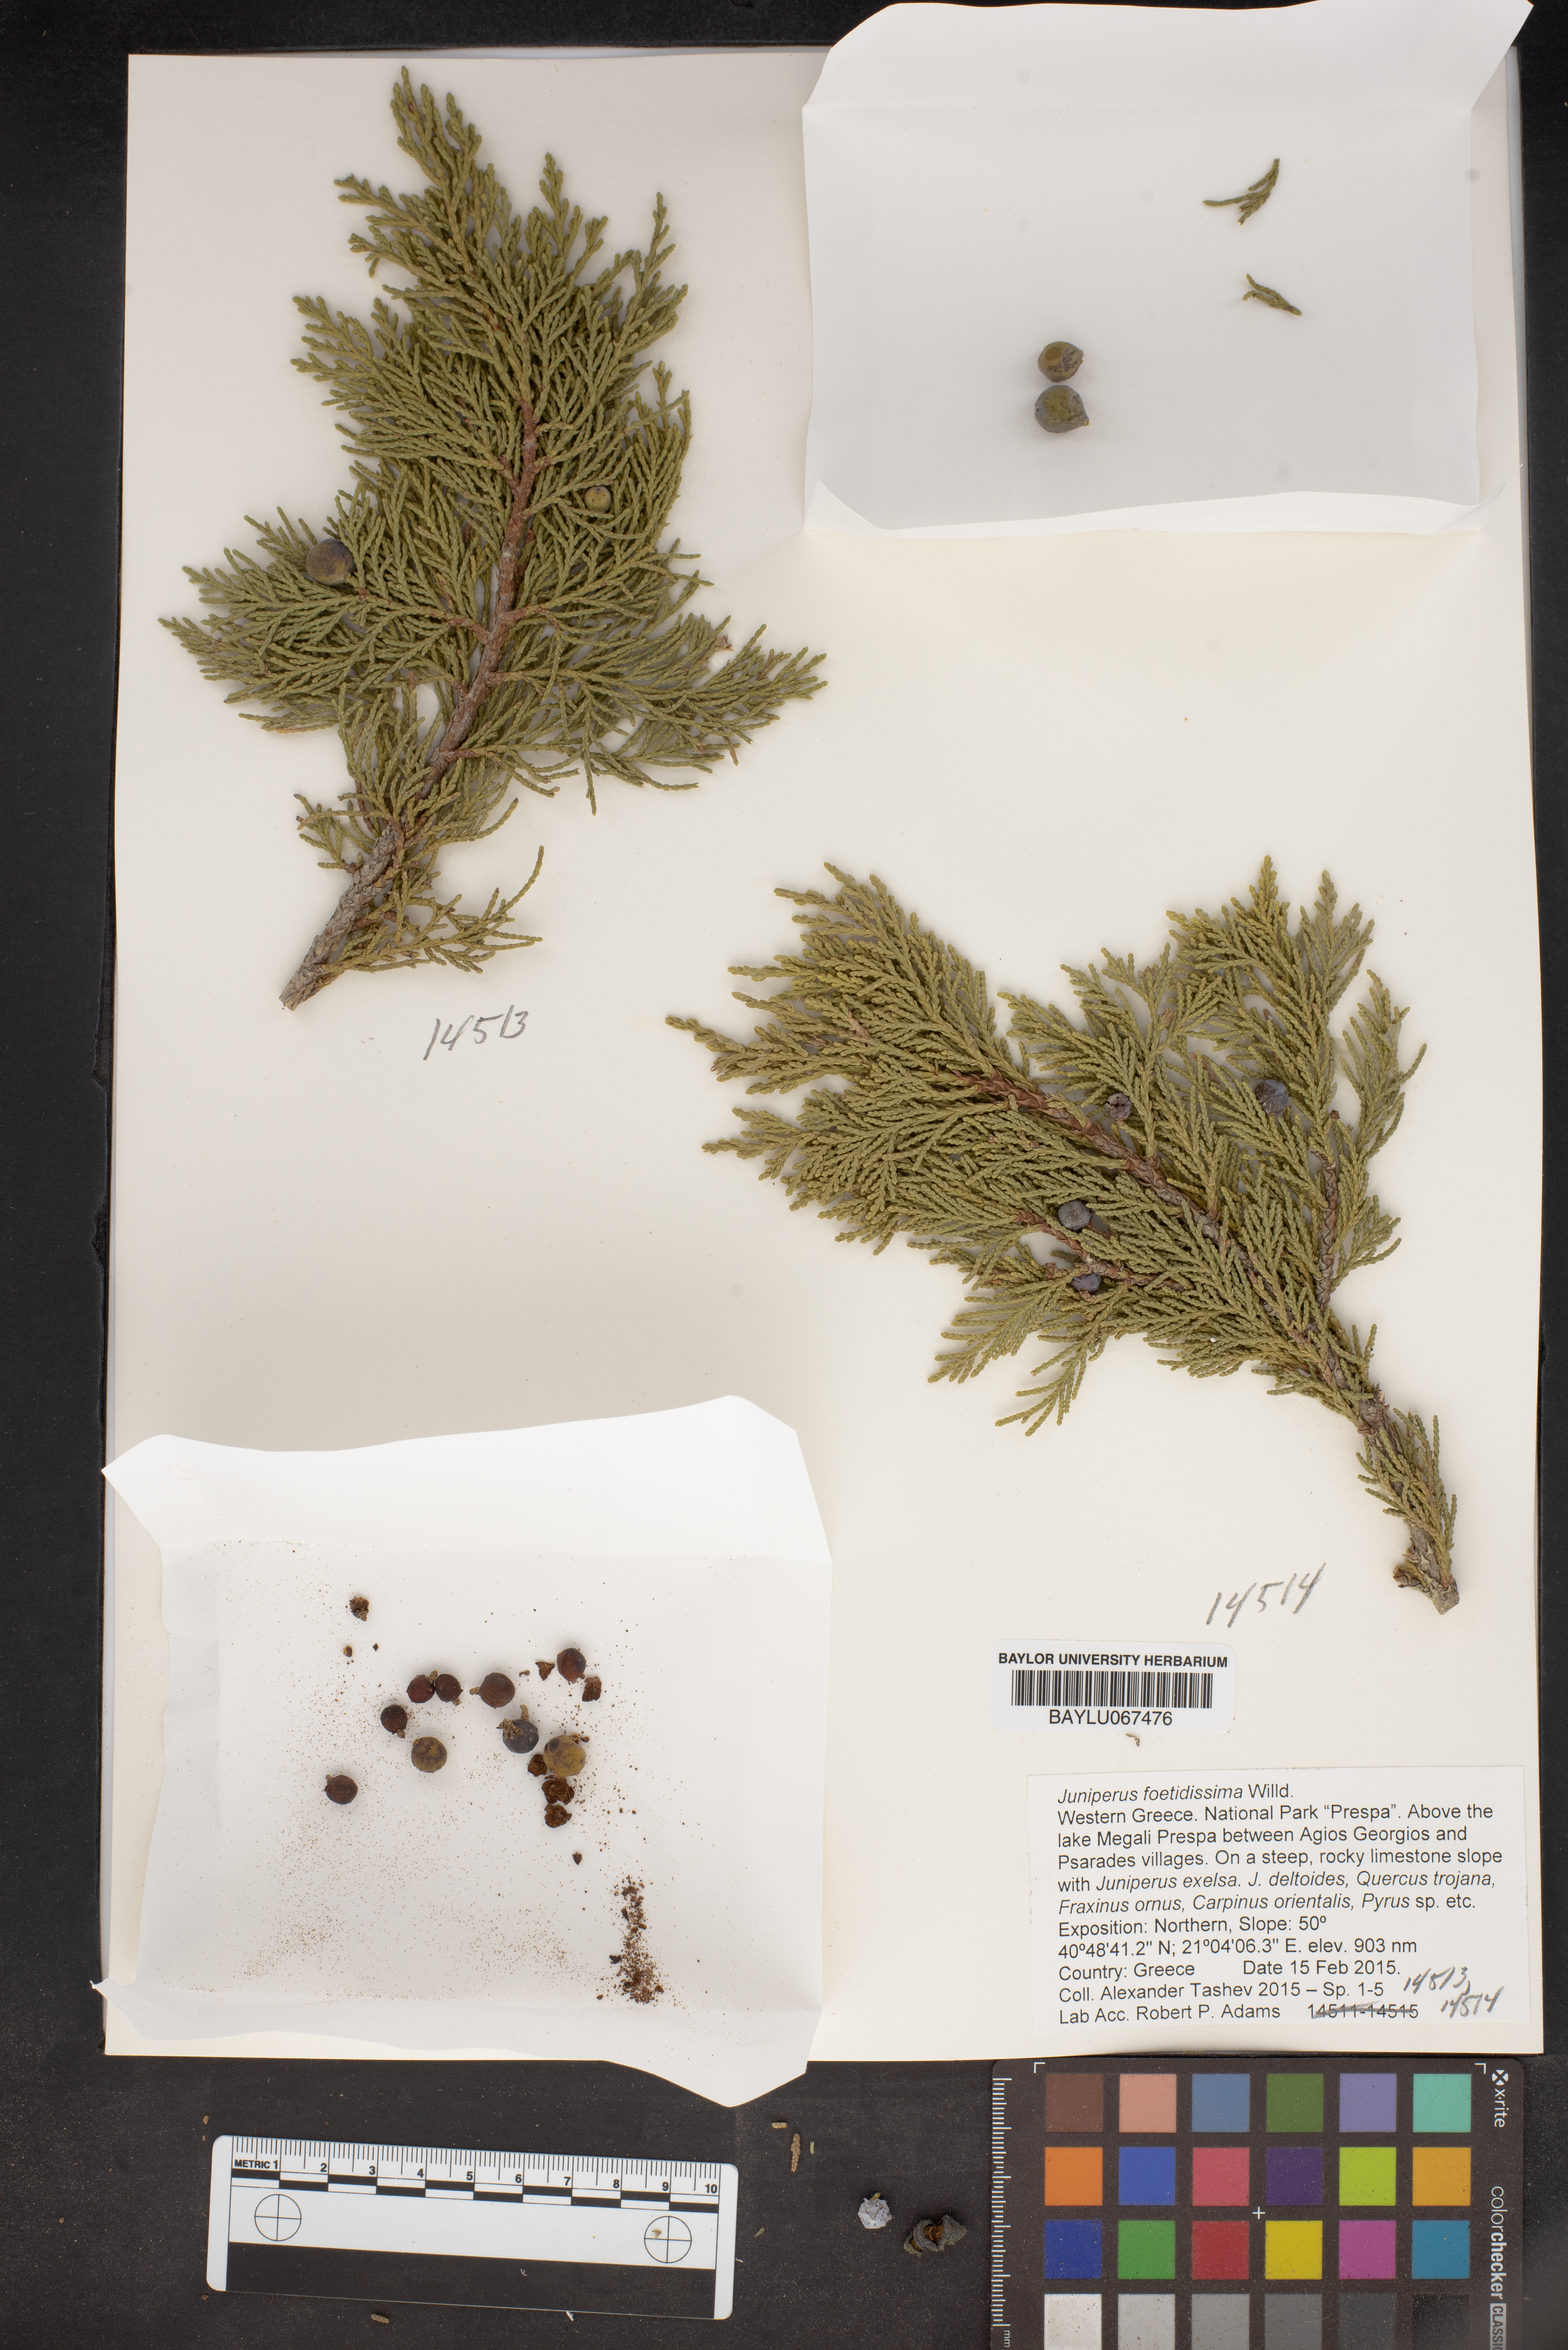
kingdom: Plantae
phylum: Tracheophyta
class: Pinopsida
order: Pinales
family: Cupressaceae
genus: Juniperus
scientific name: Juniperus foetidissima
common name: Stinking juniper
